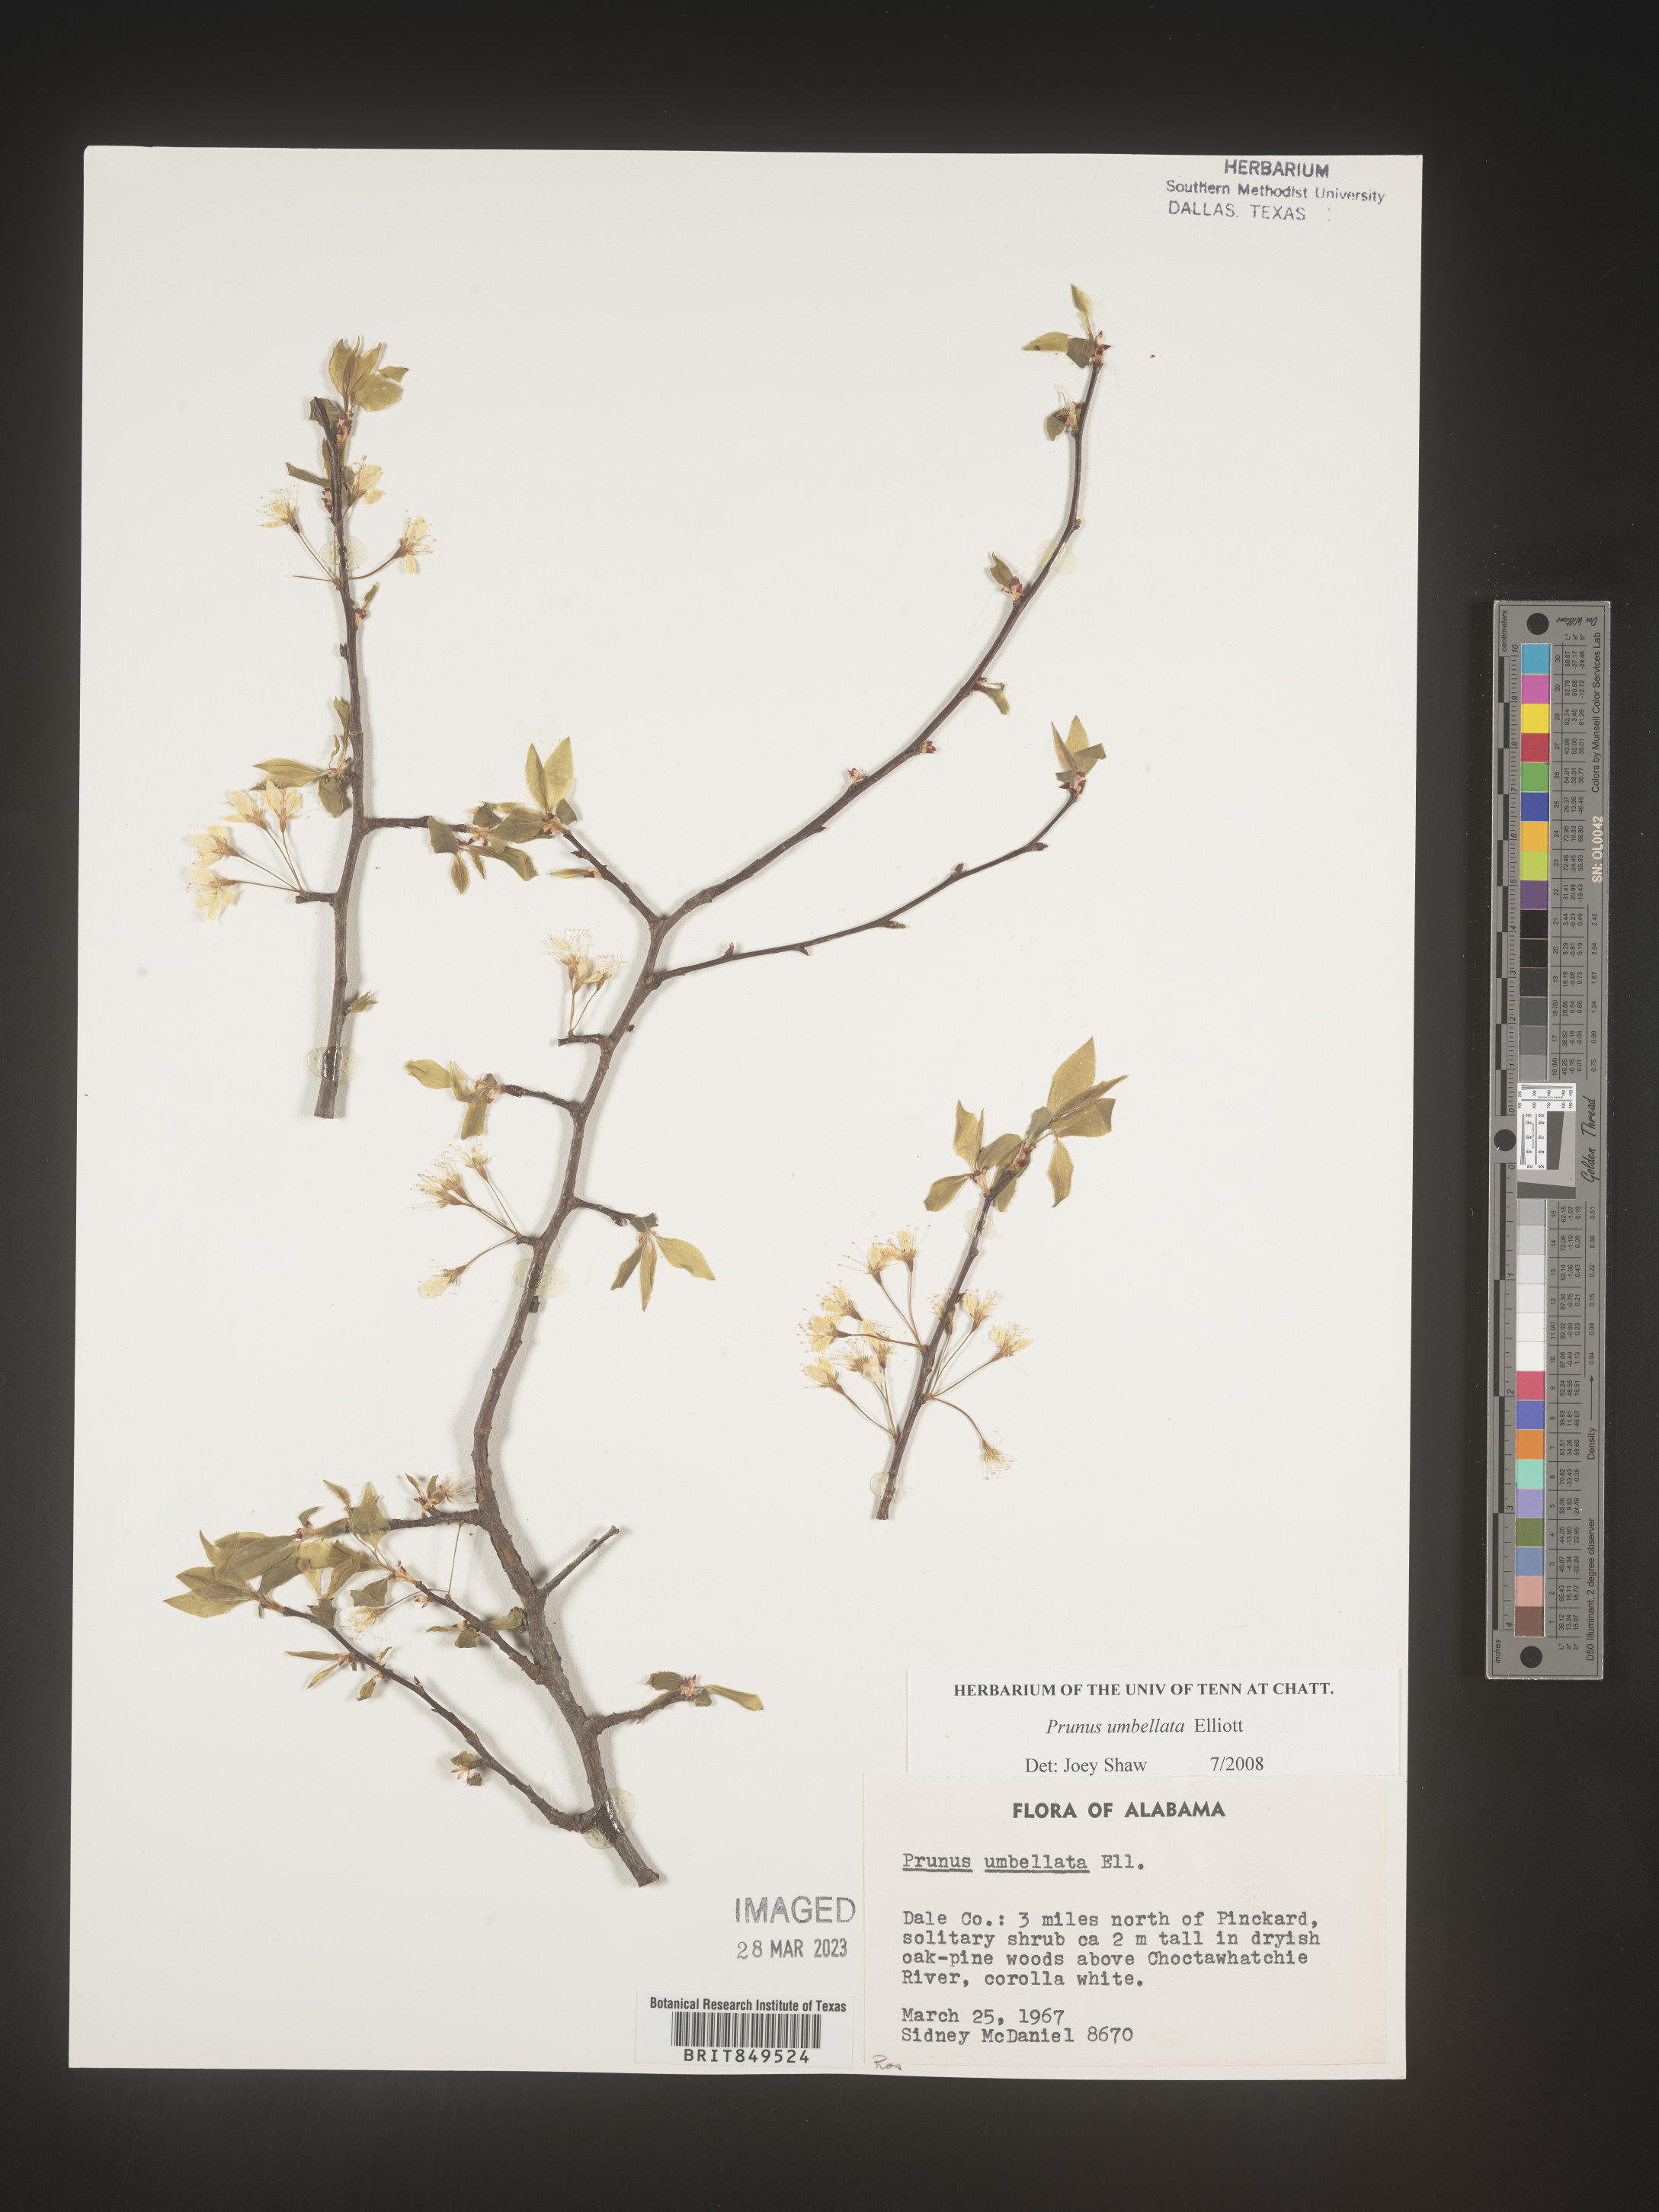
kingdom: Plantae
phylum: Tracheophyta
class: Magnoliopsida
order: Rosales
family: Rosaceae
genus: Prunus
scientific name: Prunus umbellata
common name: Allegheny plum
